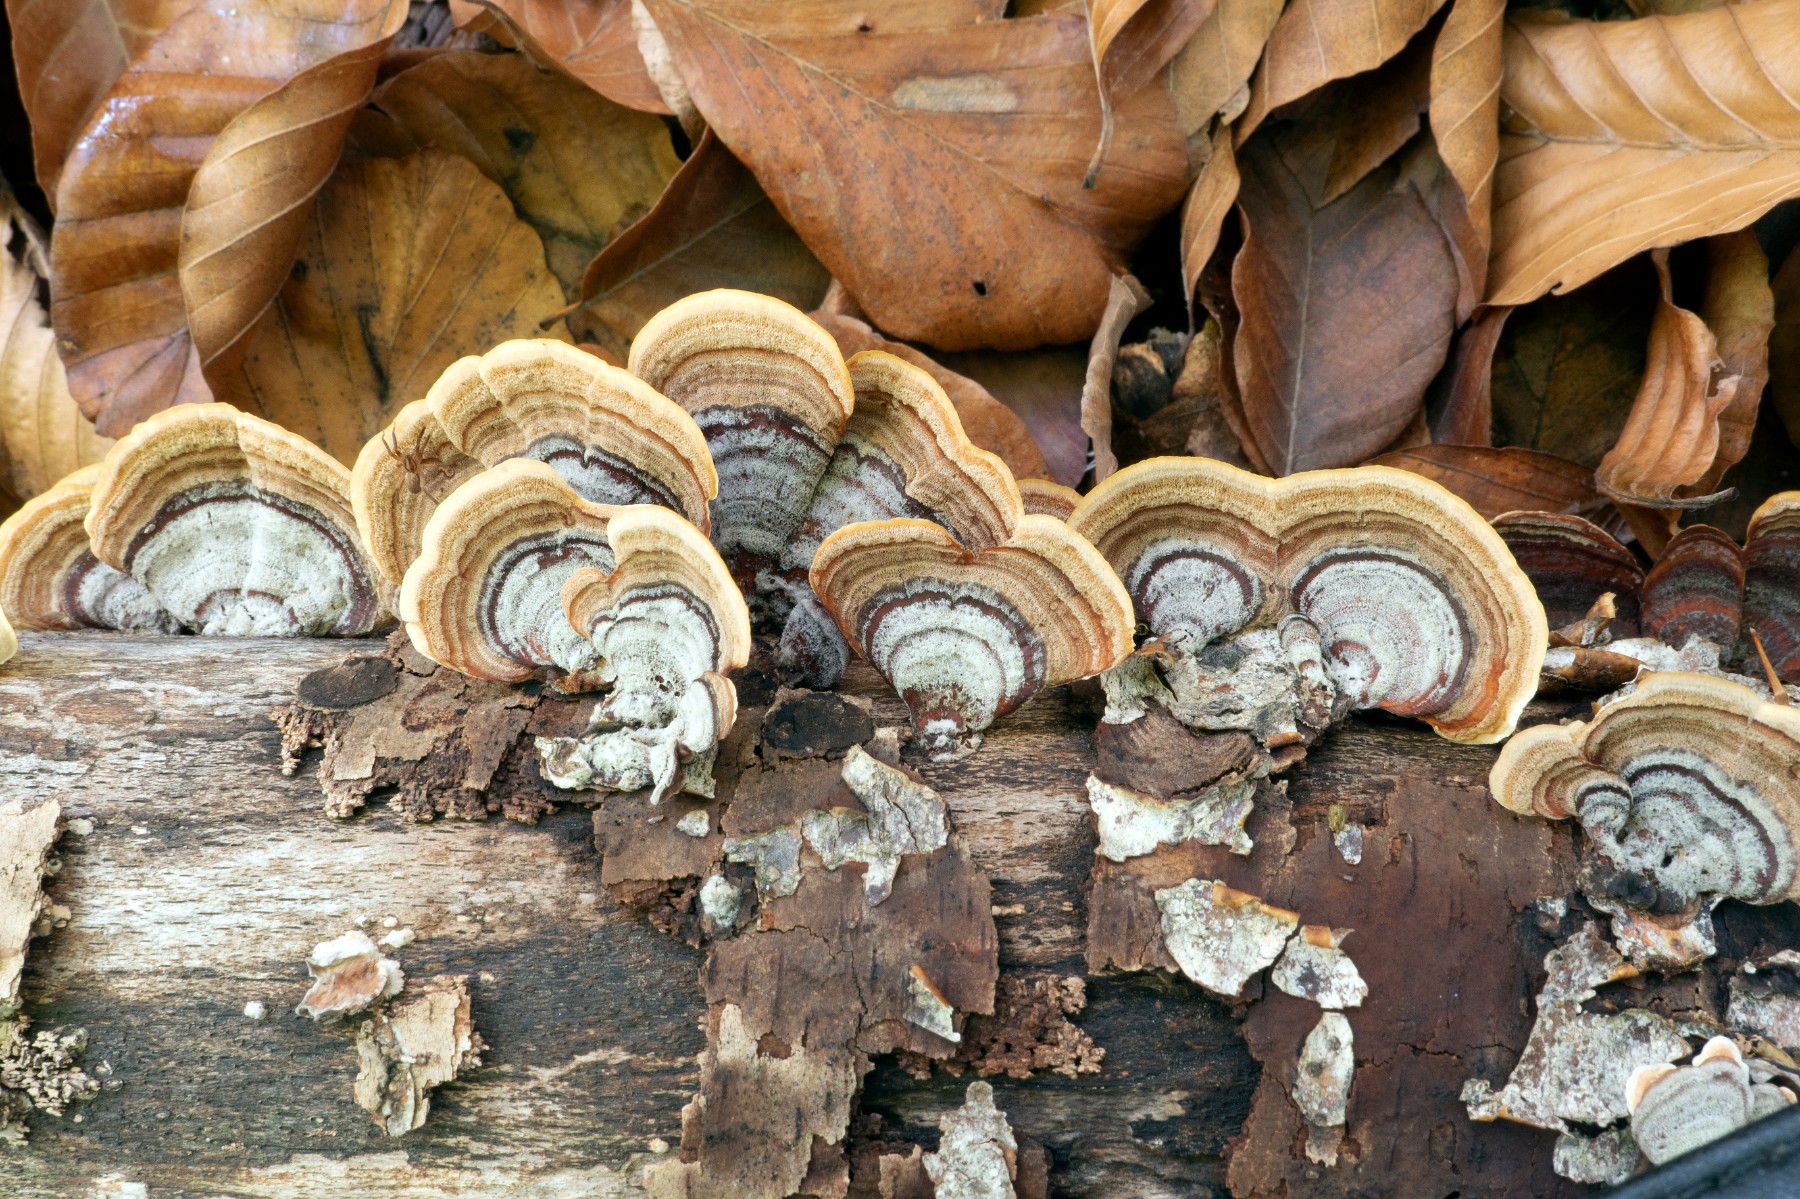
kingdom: Fungi
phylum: Basidiomycota
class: Agaricomycetes
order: Russulales
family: Stereaceae
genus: Stereum
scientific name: Stereum subtomentosum
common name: smuk lædersvamp
